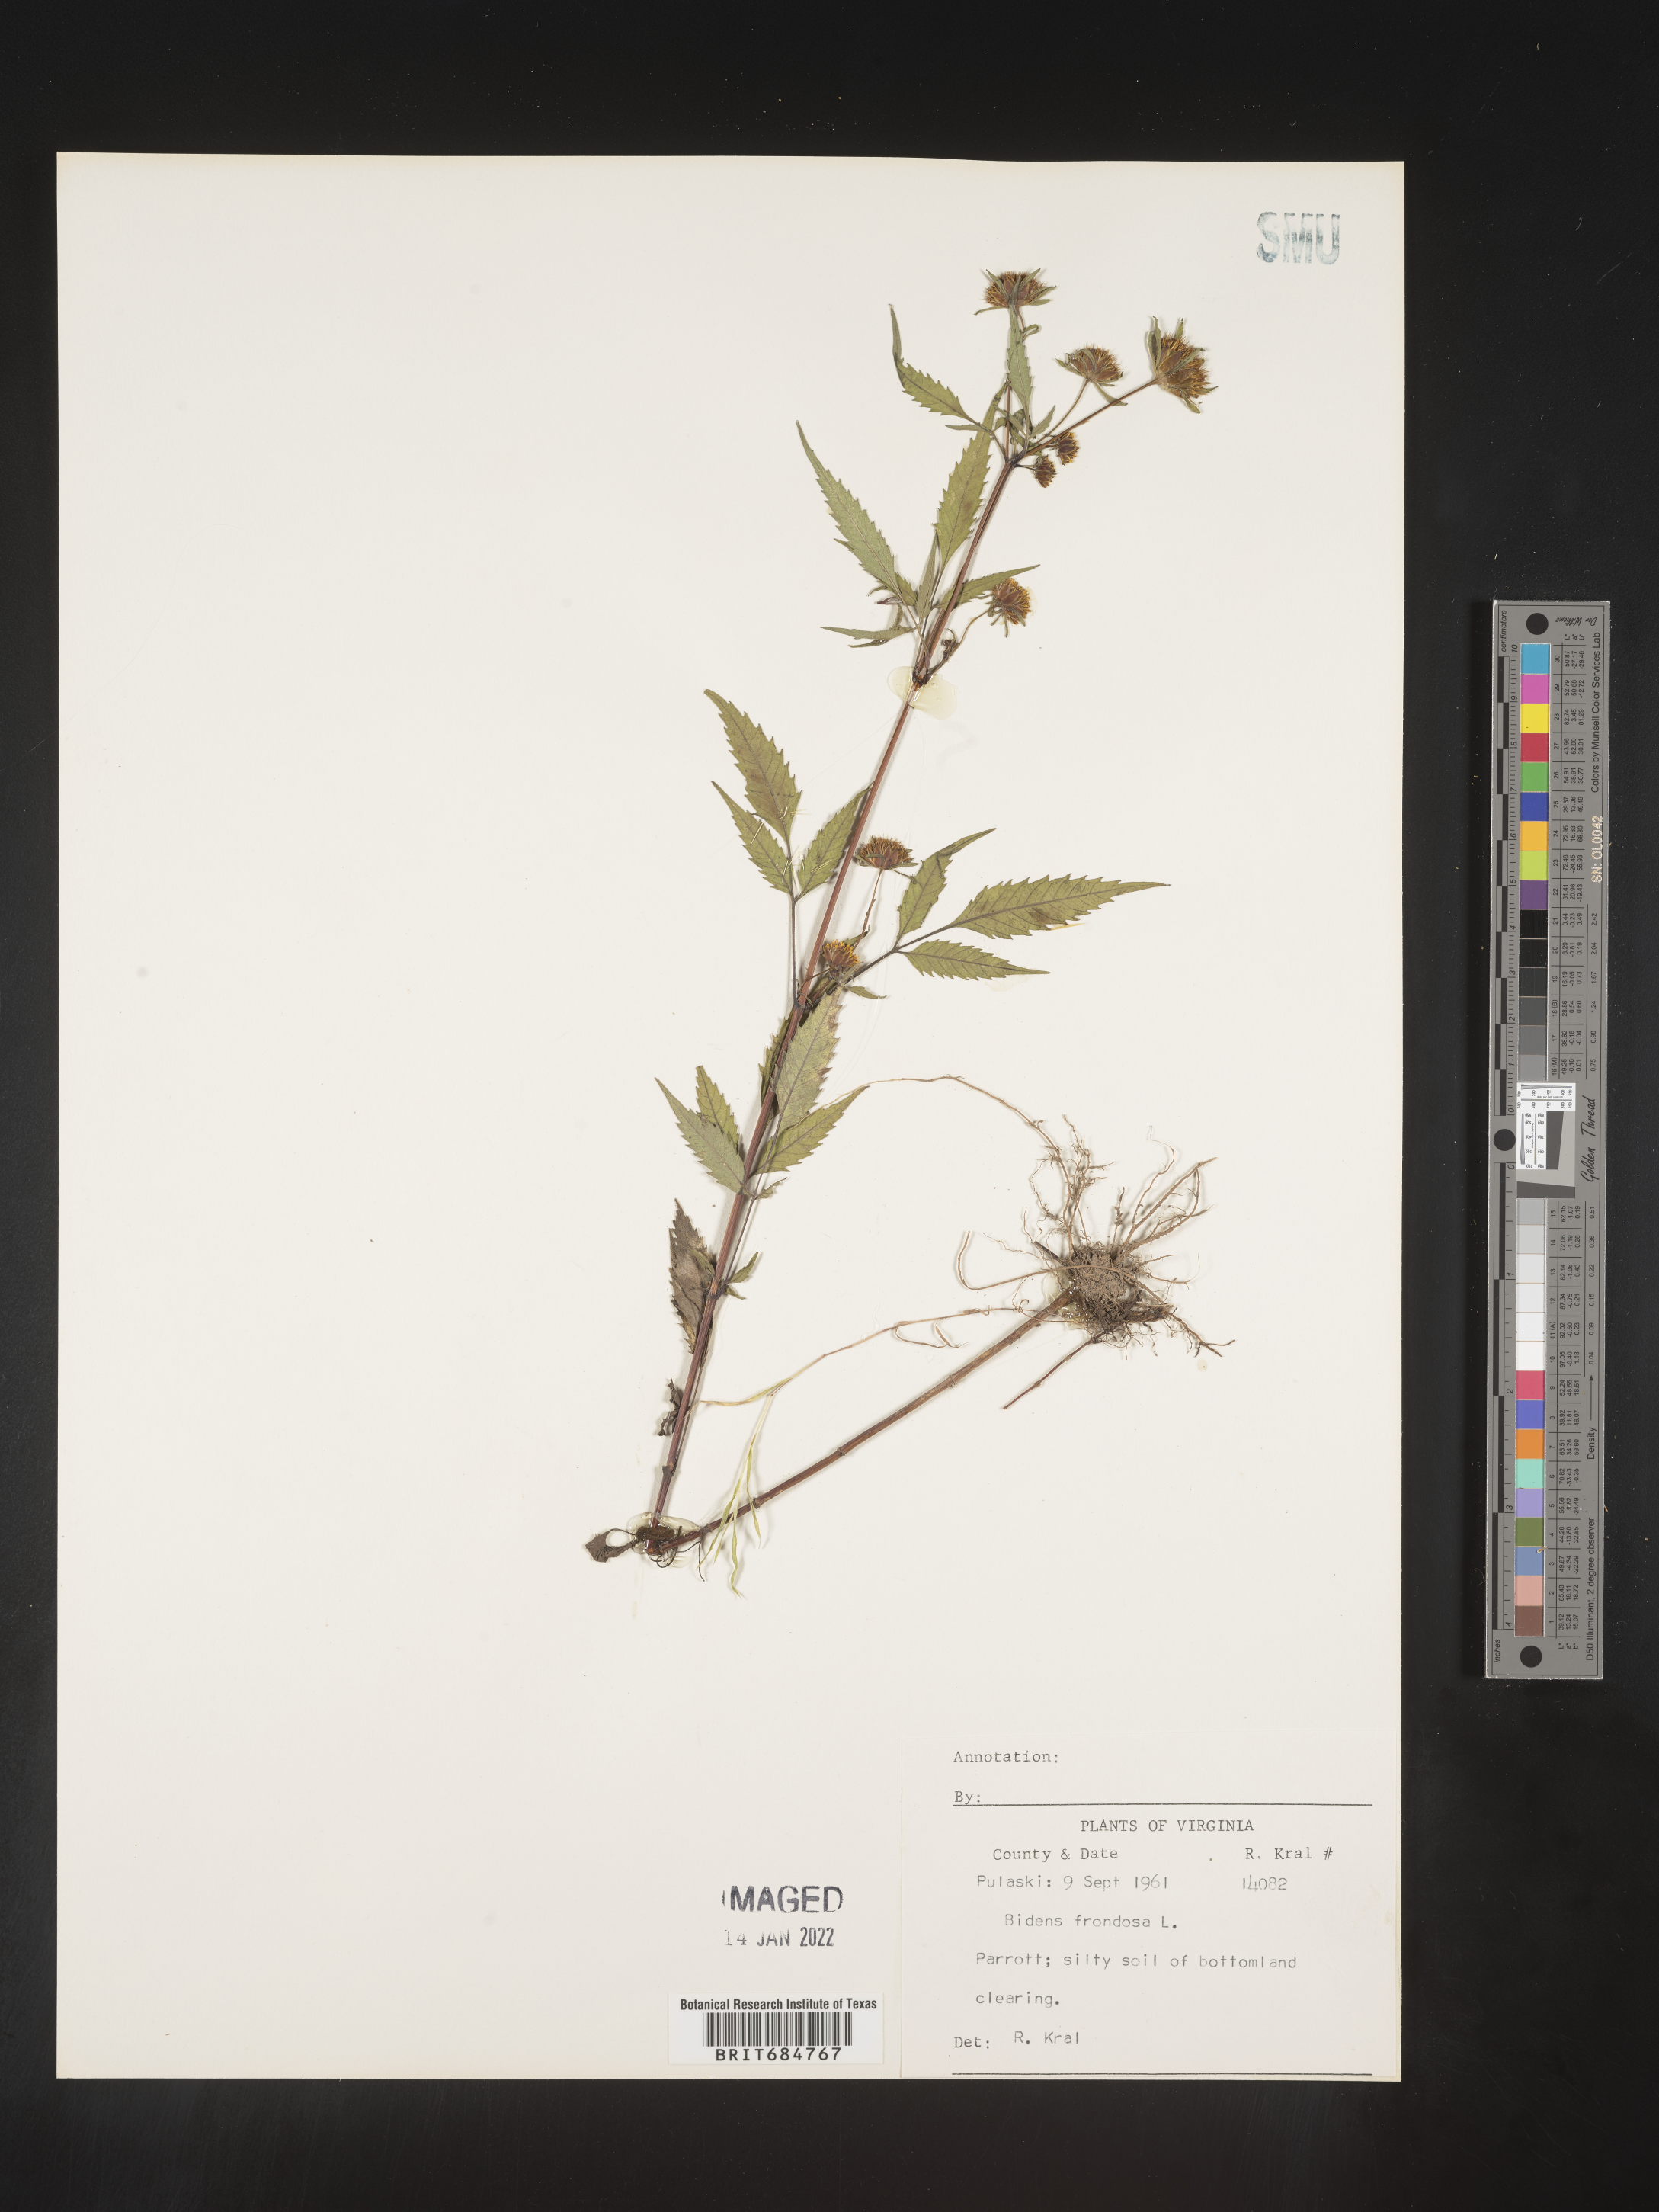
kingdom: Plantae
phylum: Tracheophyta
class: Magnoliopsida
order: Asterales
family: Asteraceae
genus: Bidens
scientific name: Bidens frondosa
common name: Beggarticks
